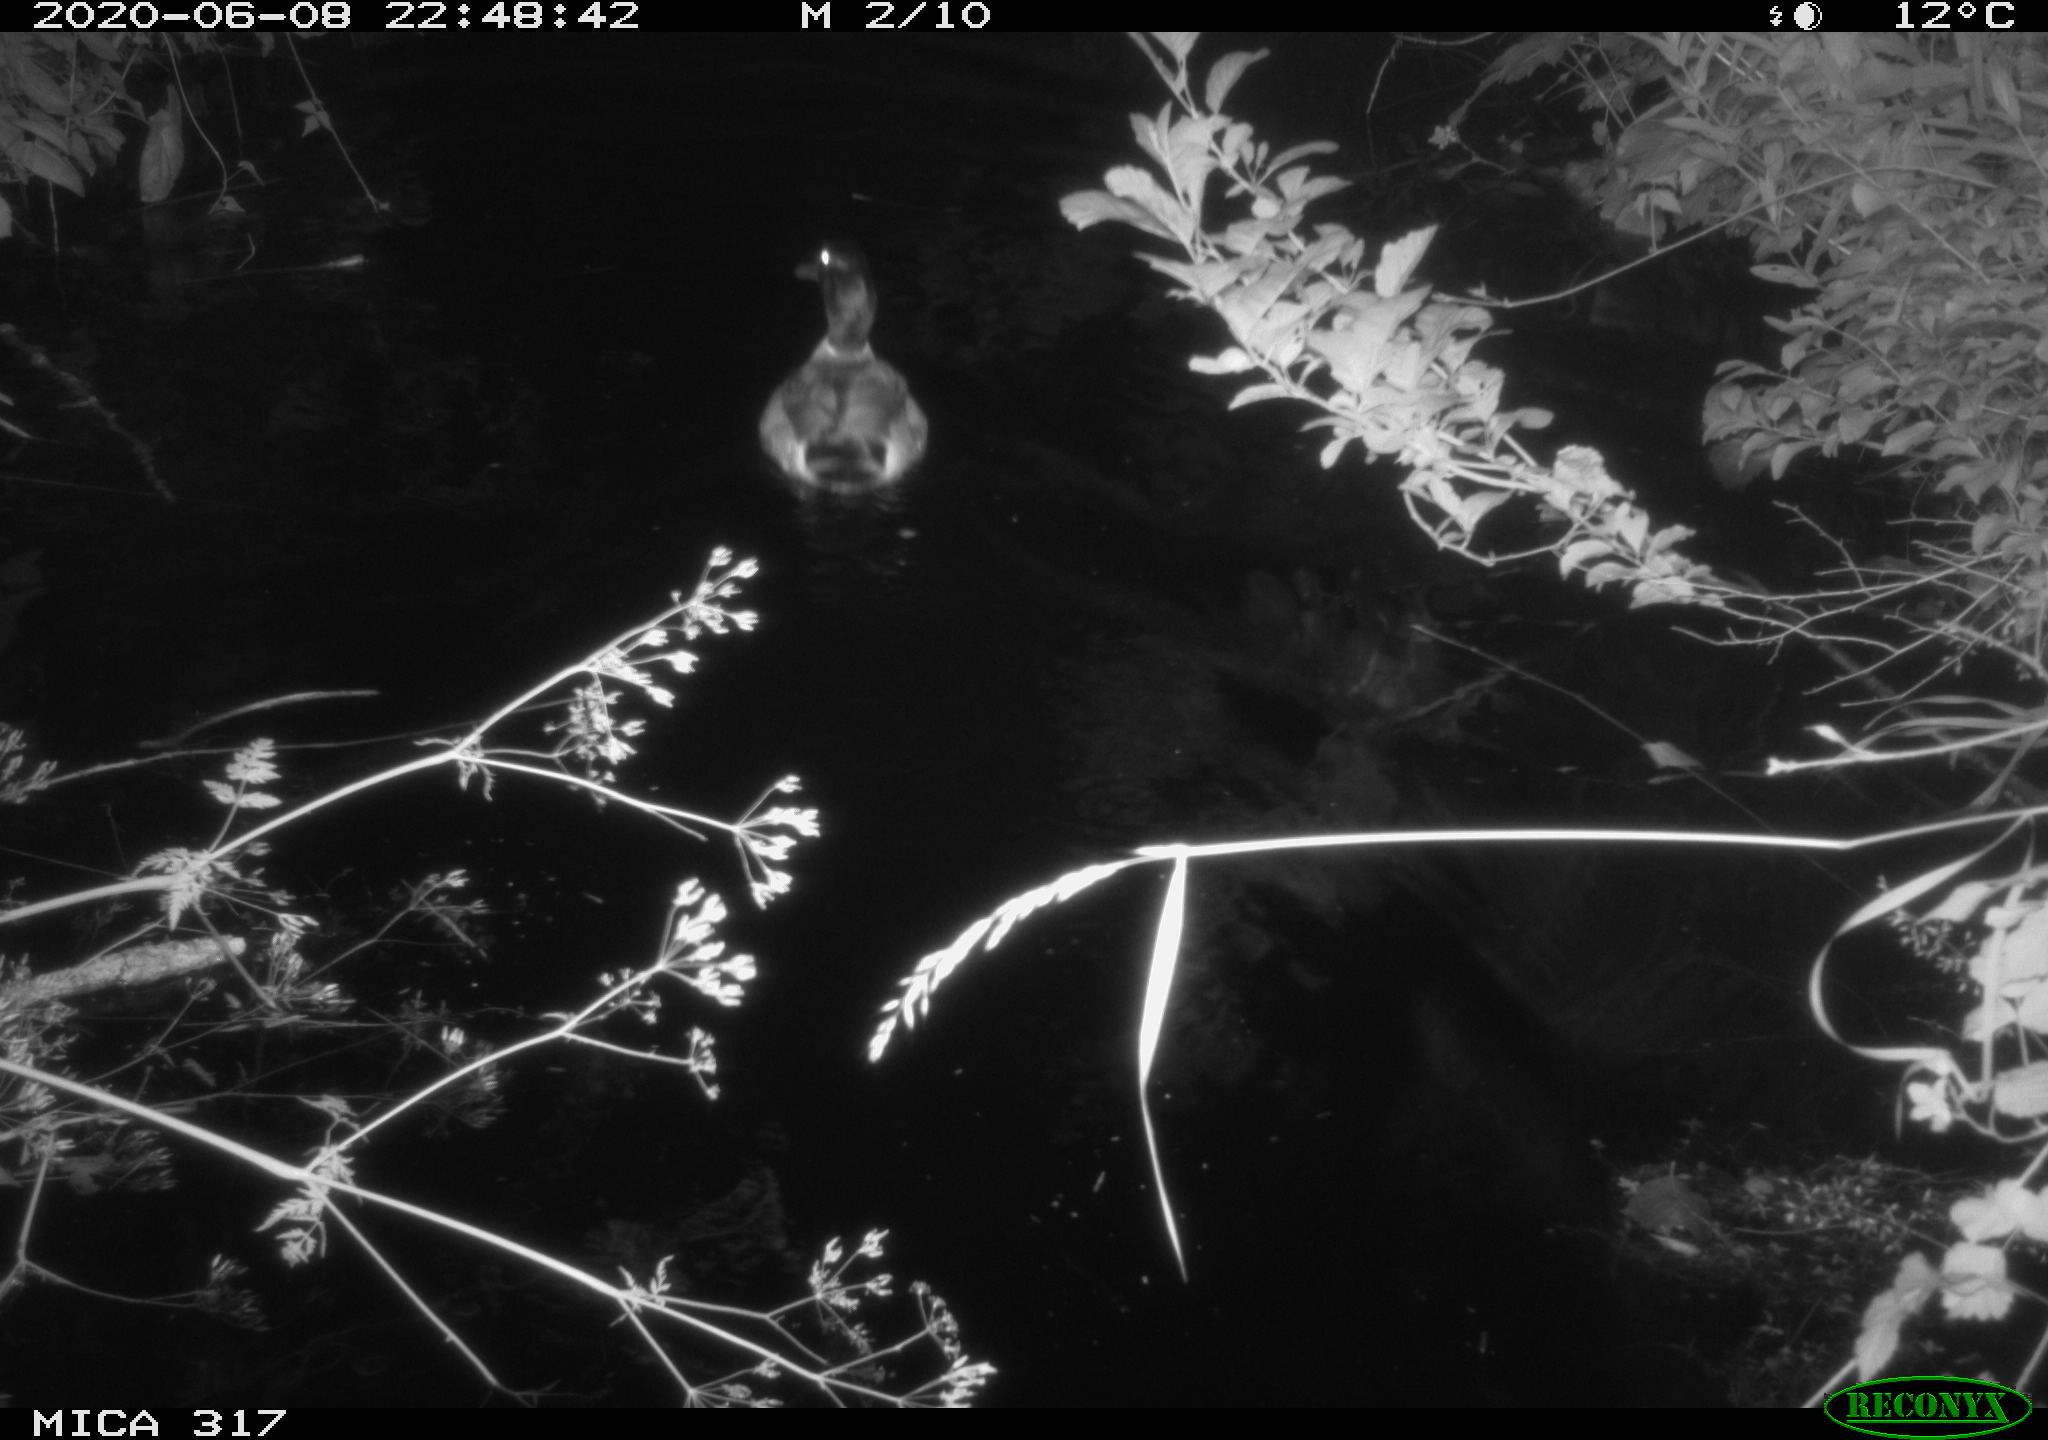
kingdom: Animalia
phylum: Chordata
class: Aves
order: Anseriformes
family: Anatidae
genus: Anas
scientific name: Anas platyrhynchos
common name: Mallard
